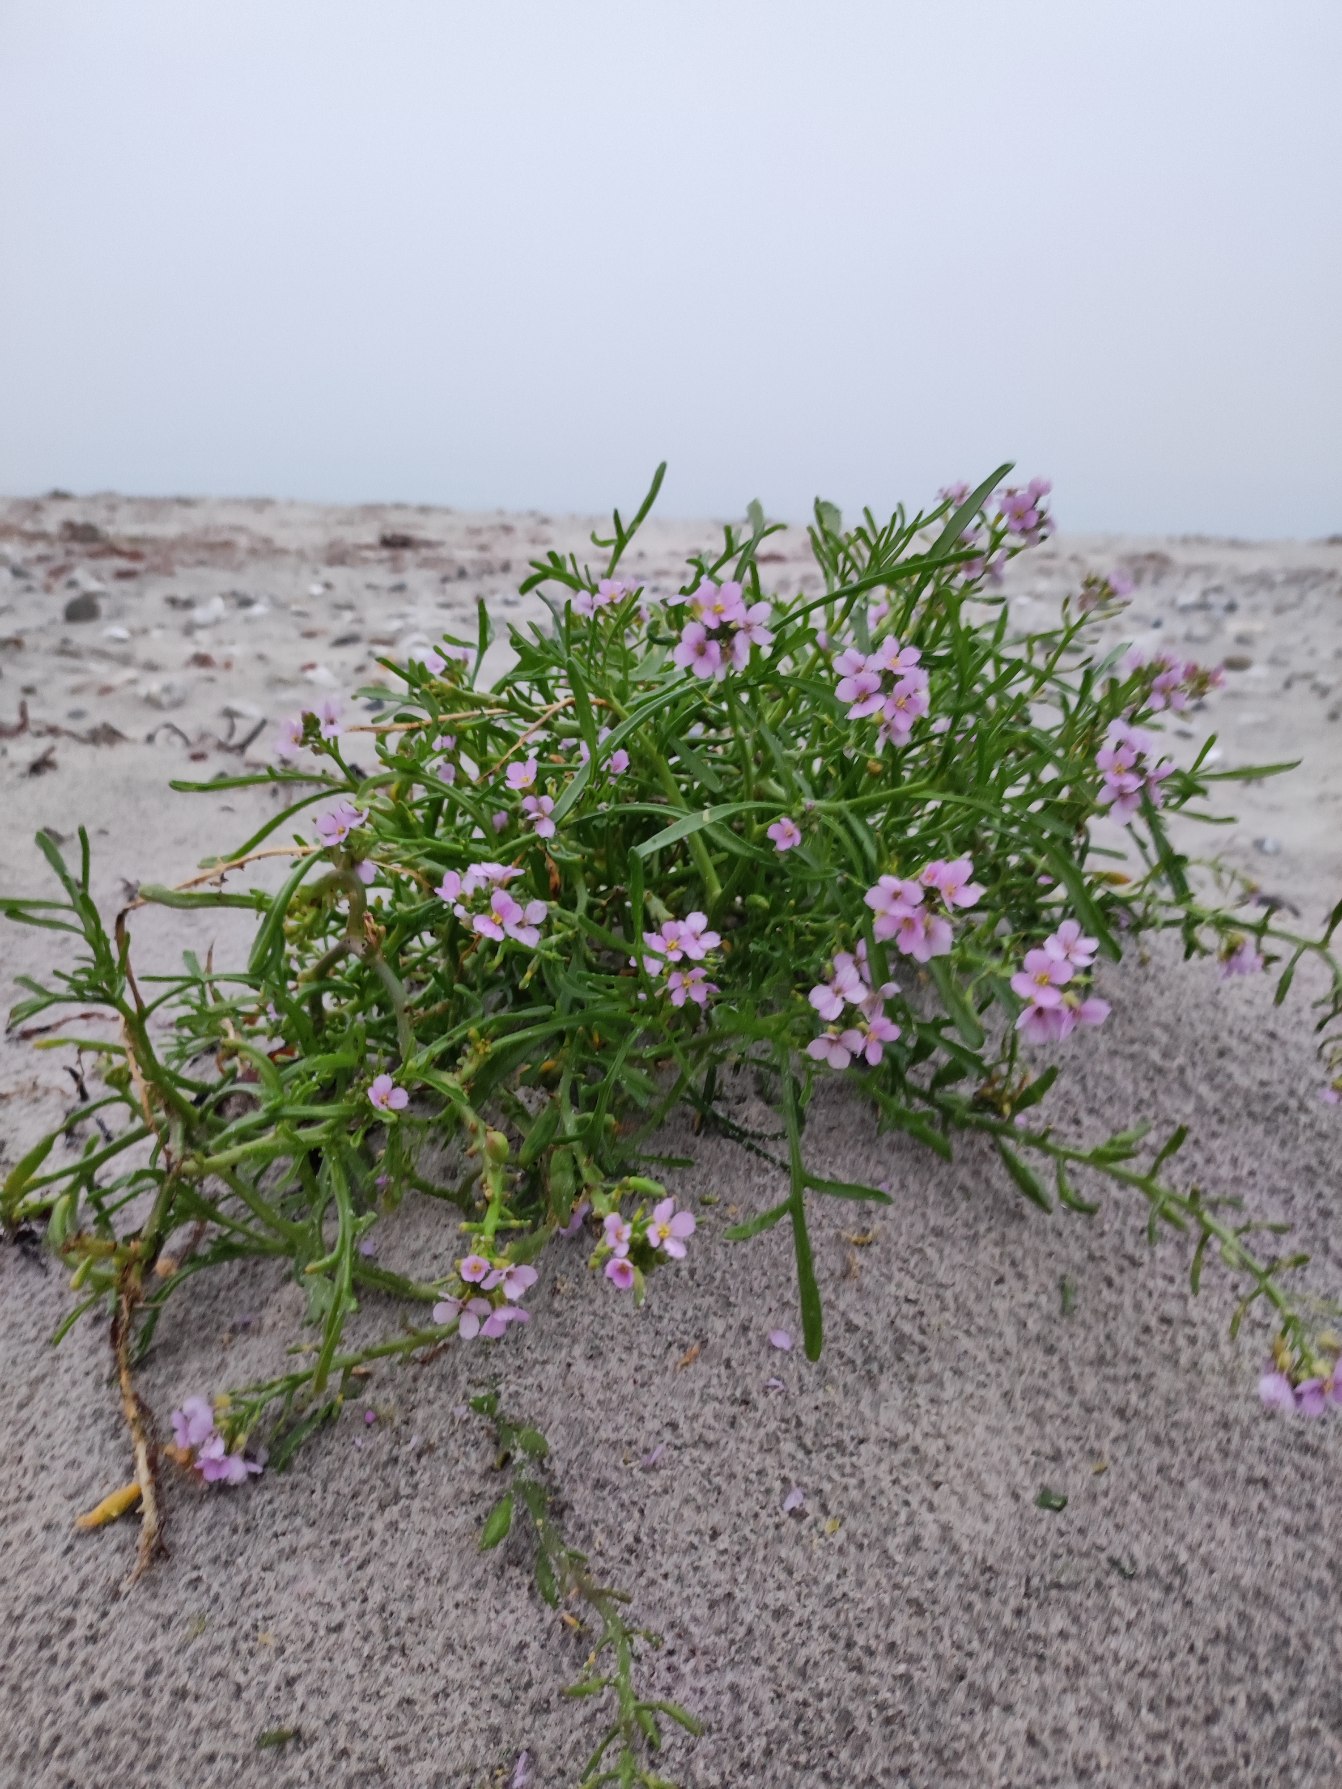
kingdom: Plantae
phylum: Tracheophyta
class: Magnoliopsida
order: Brassicales
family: Brassicaceae
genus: Cakile
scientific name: Cakile maritima
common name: Strandsennep
